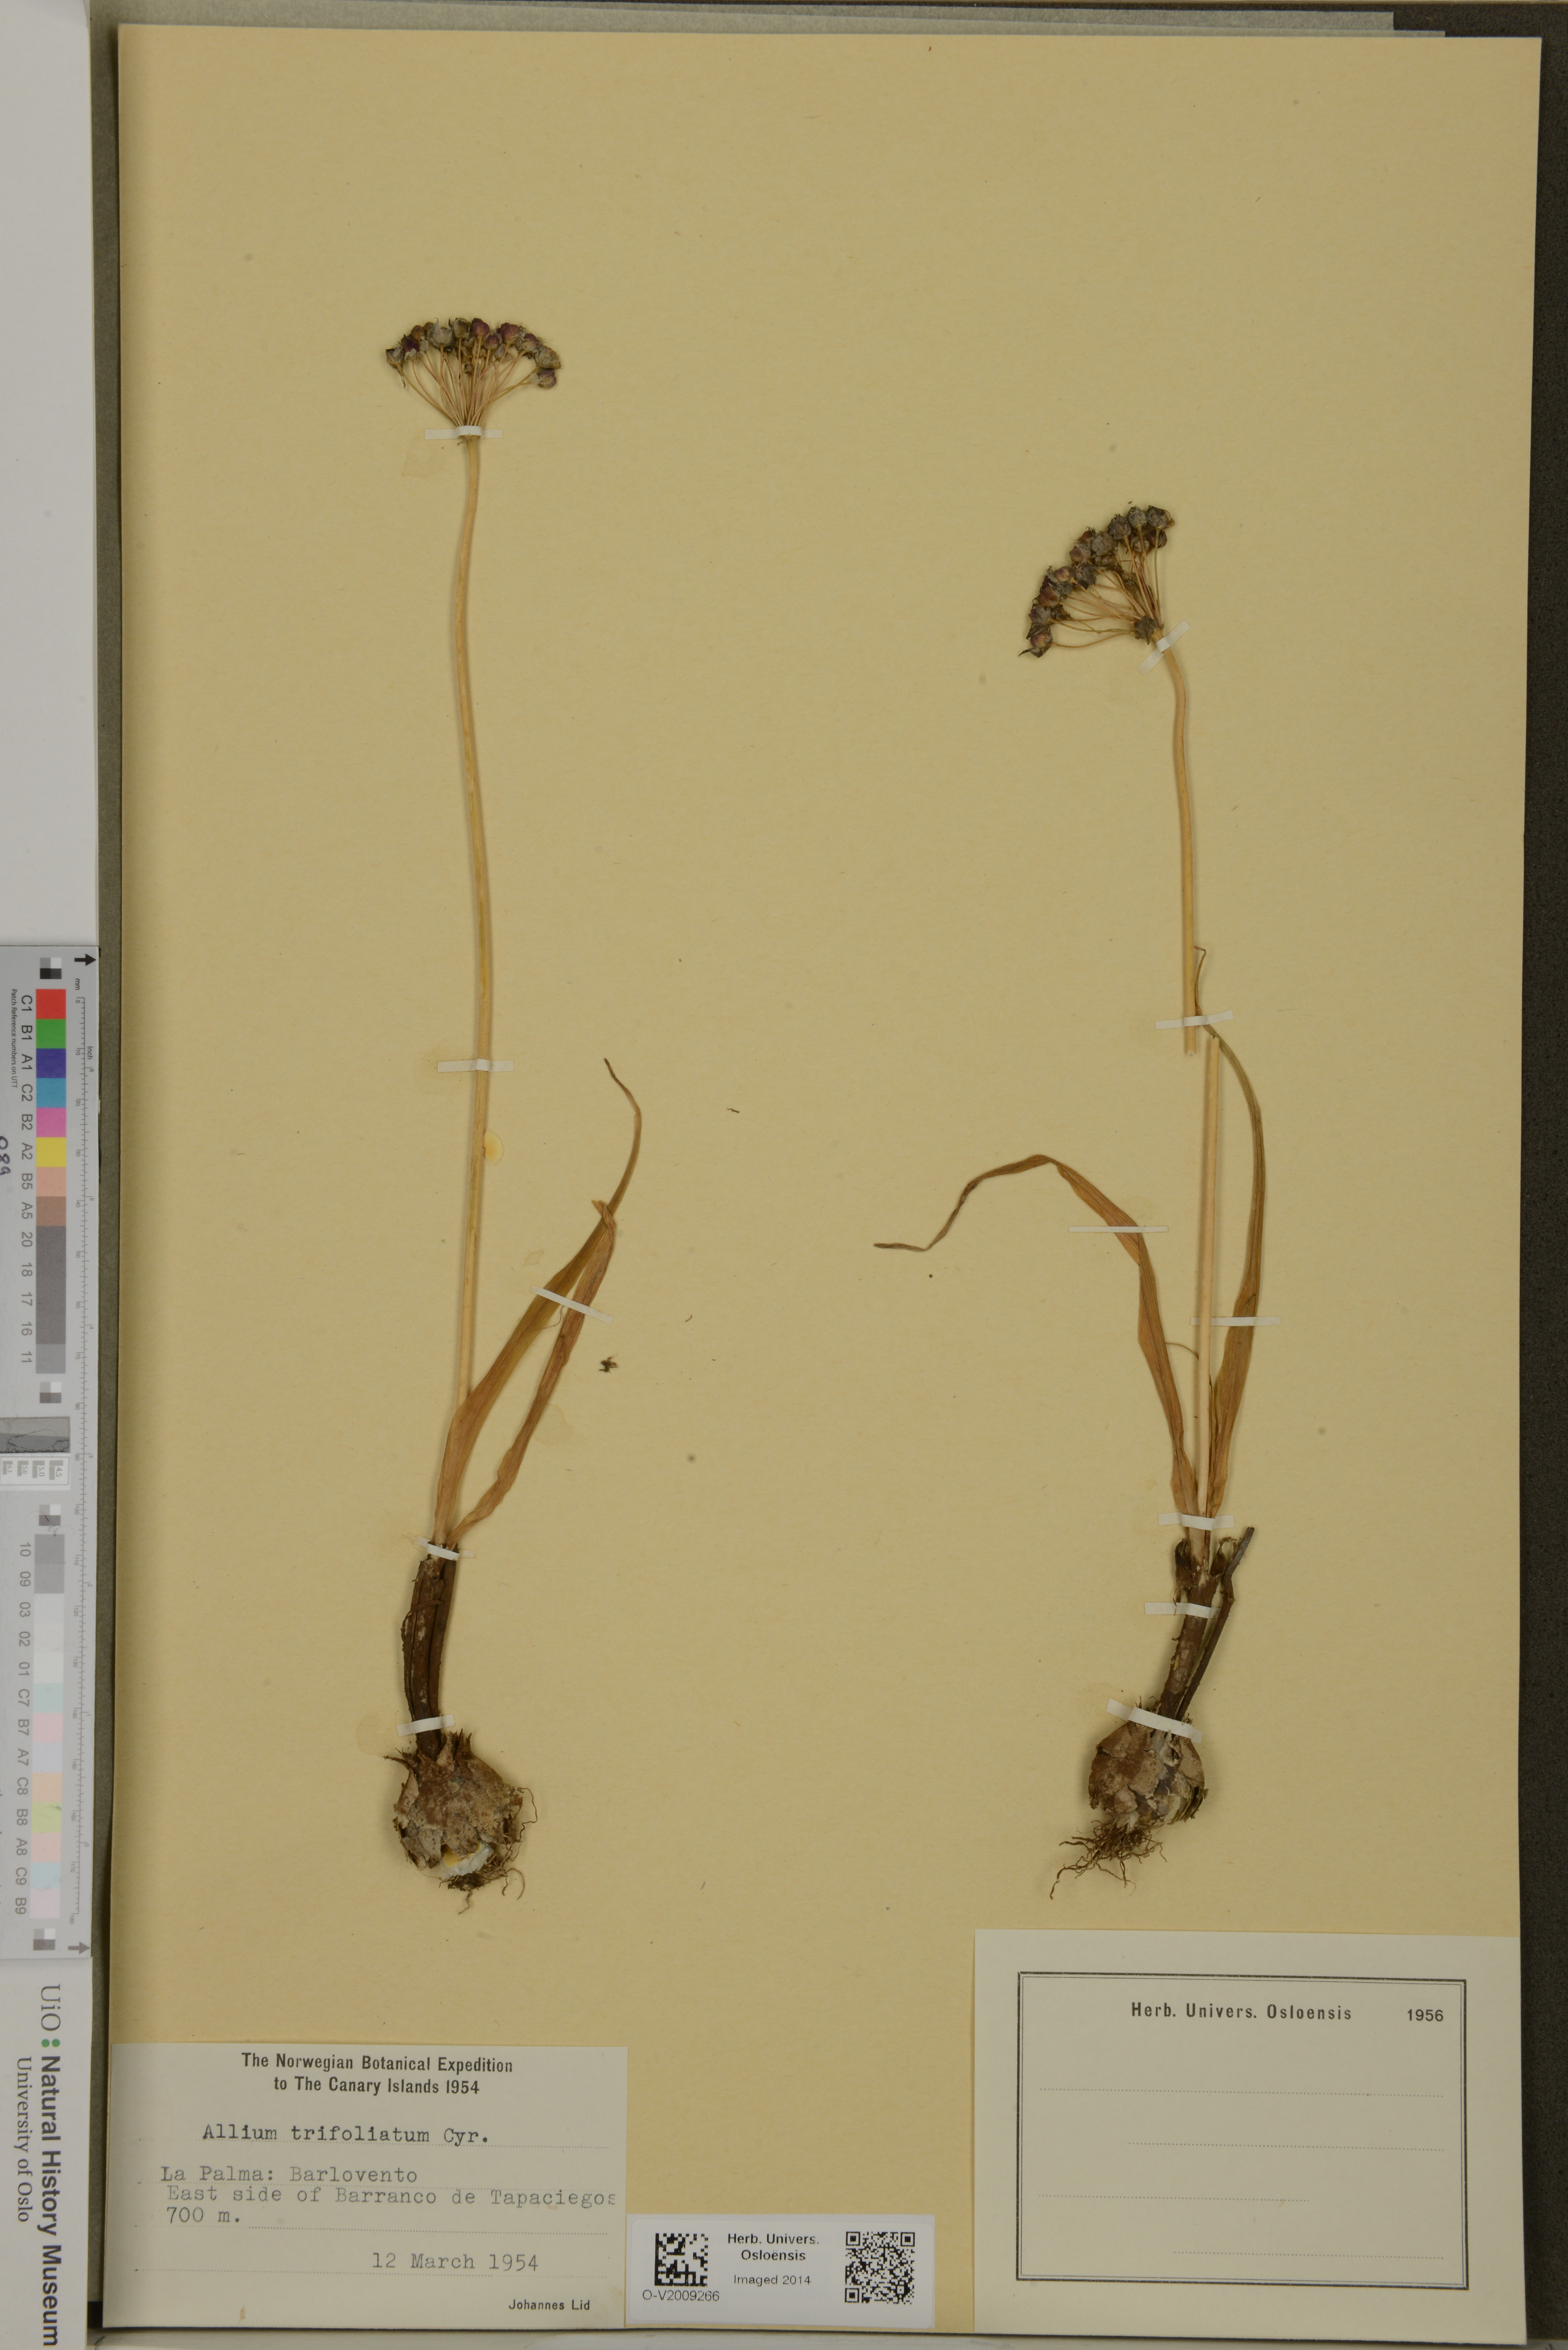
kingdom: Plantae
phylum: Tracheophyta
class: Liliopsida
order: Asparagales
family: Amaryllidaceae
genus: Allium
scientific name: Allium trifoliatum
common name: Pink garlic
